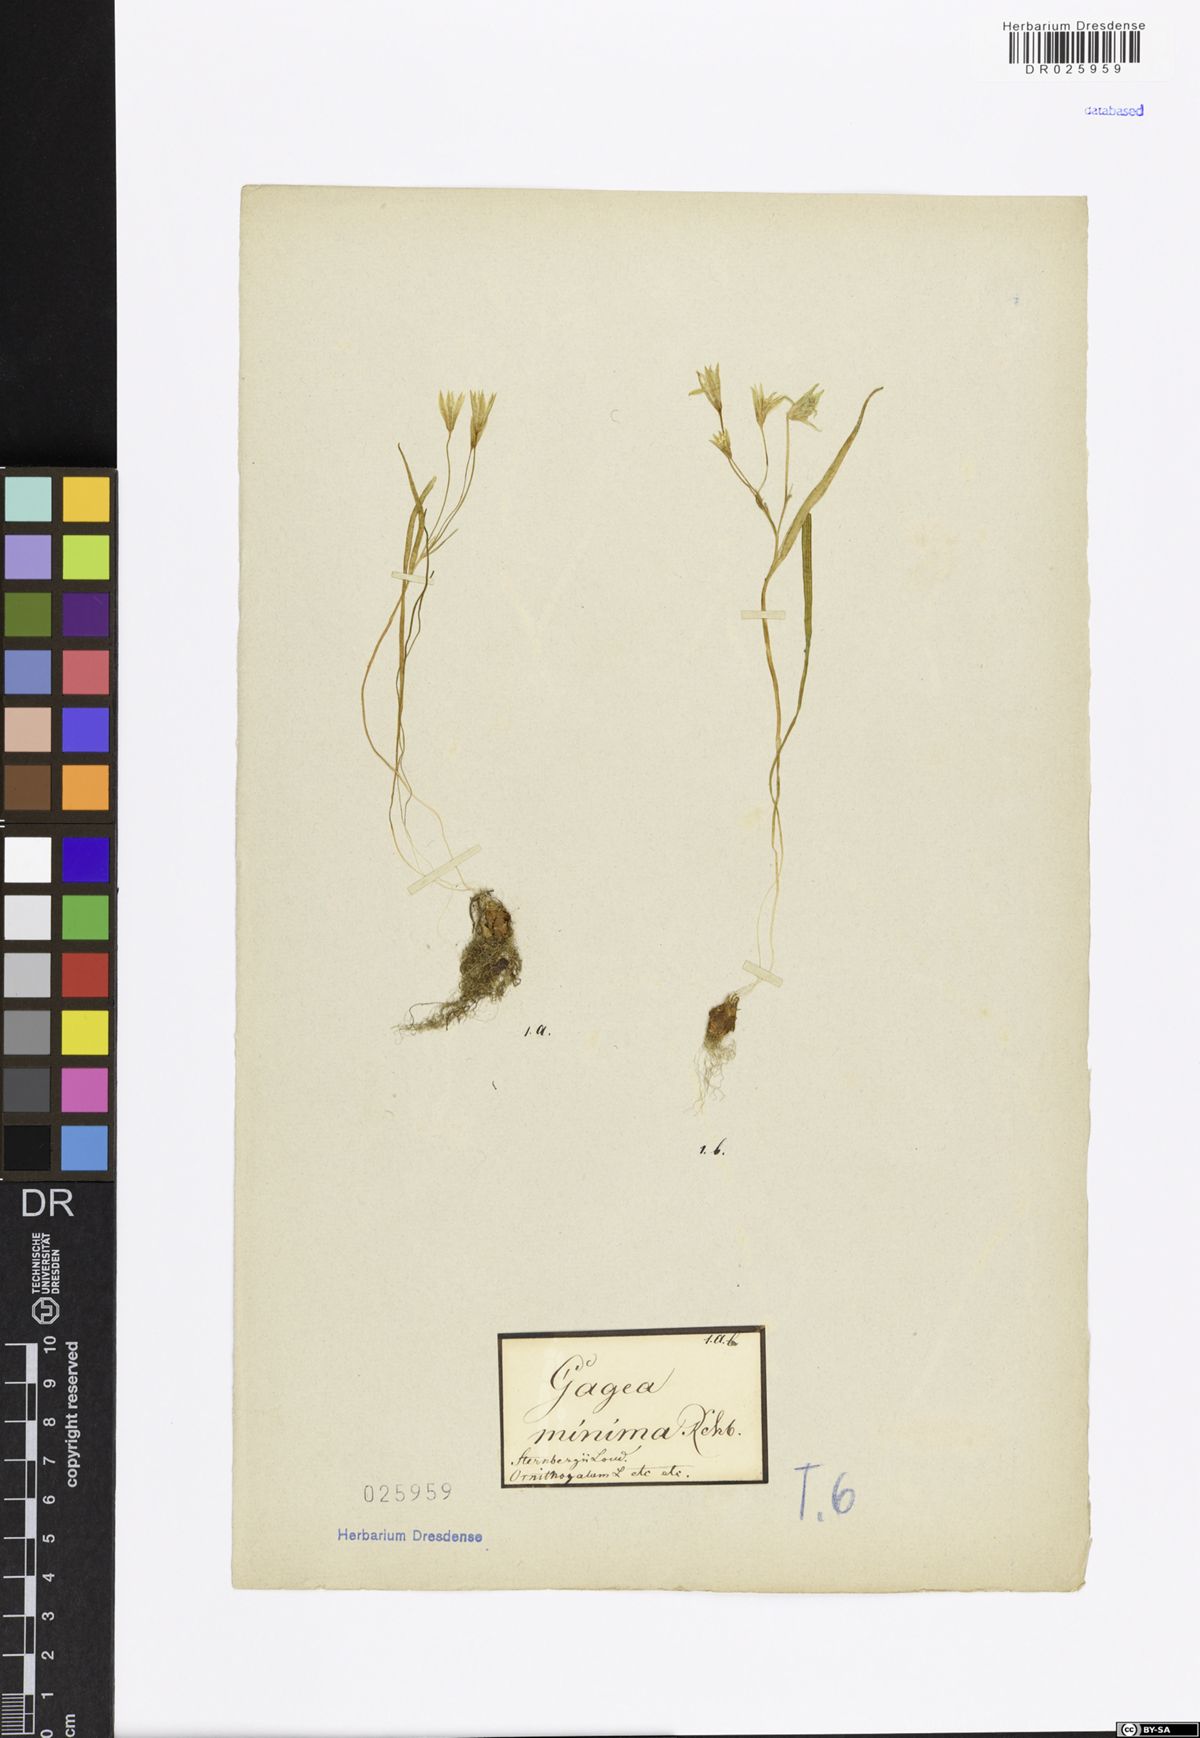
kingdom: Plantae
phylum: Tracheophyta
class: Liliopsida
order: Liliales
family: Liliaceae
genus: Gagea
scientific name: Gagea minima
